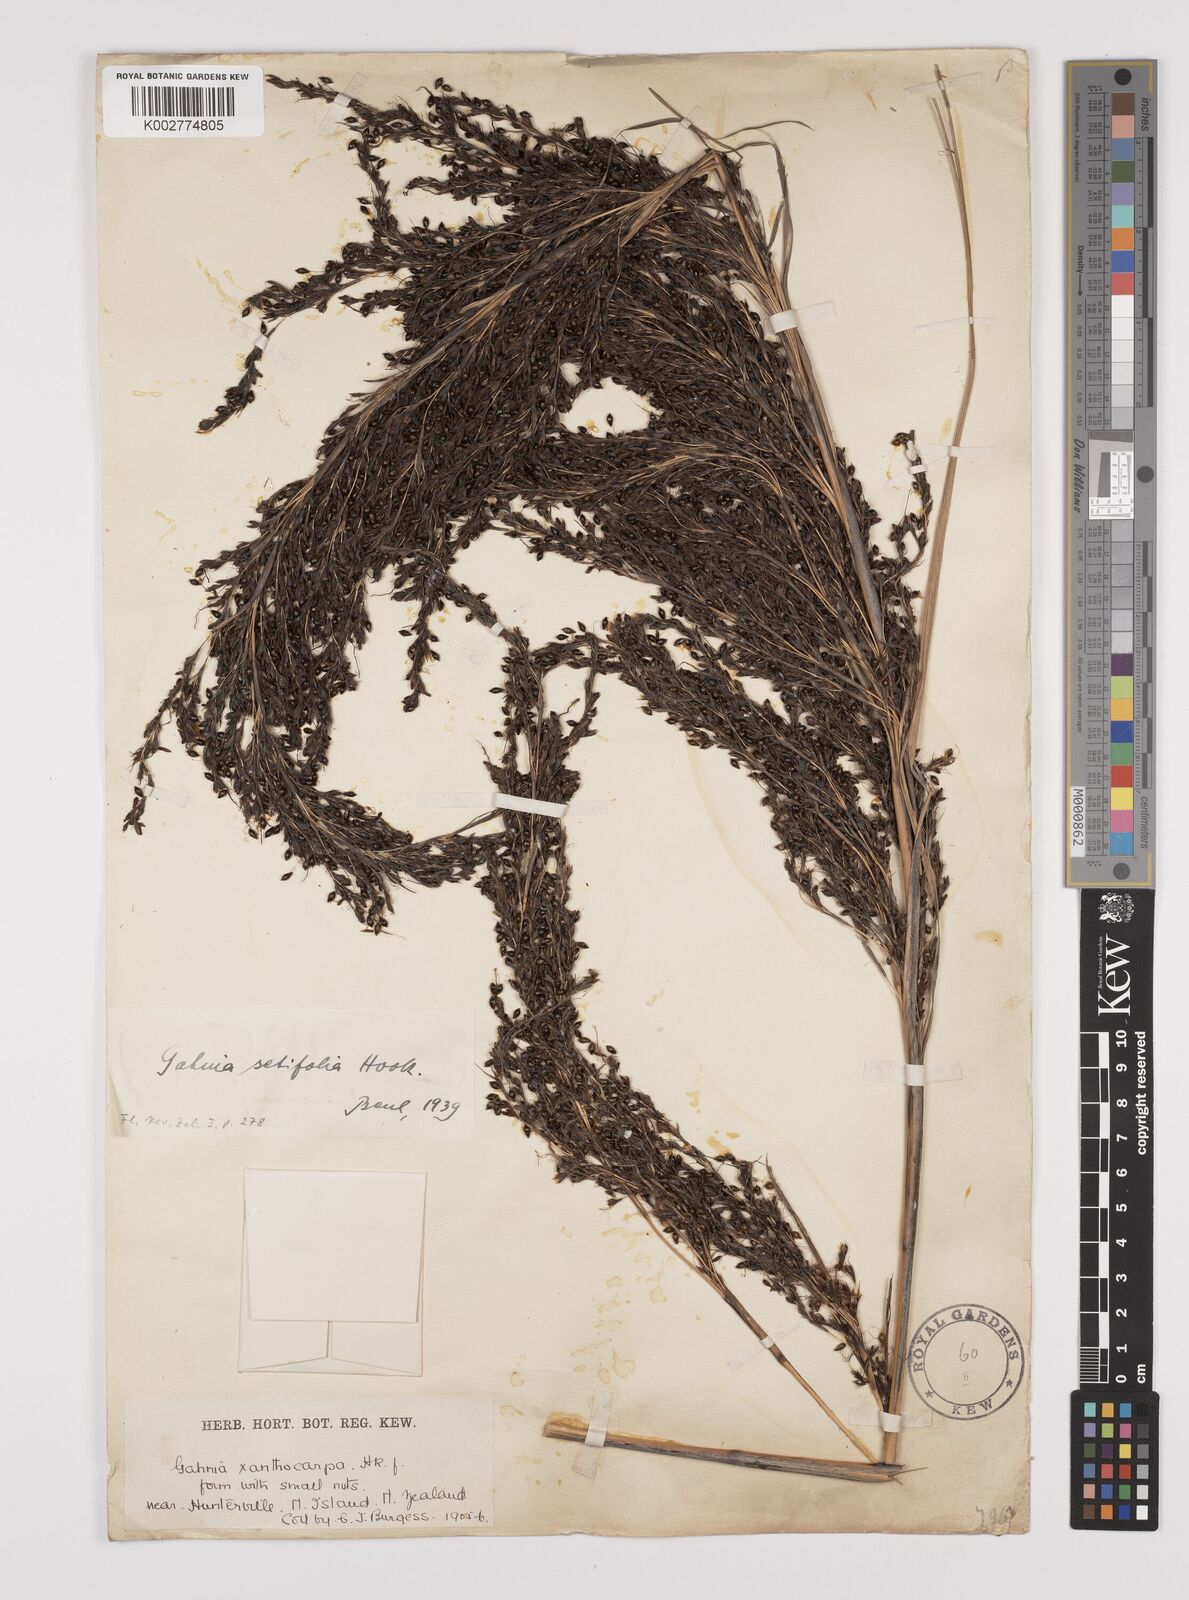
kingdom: Plantae
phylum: Tracheophyta
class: Liliopsida
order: Poales
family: Cyperaceae
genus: Gahnia
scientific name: Gahnia setifolia
